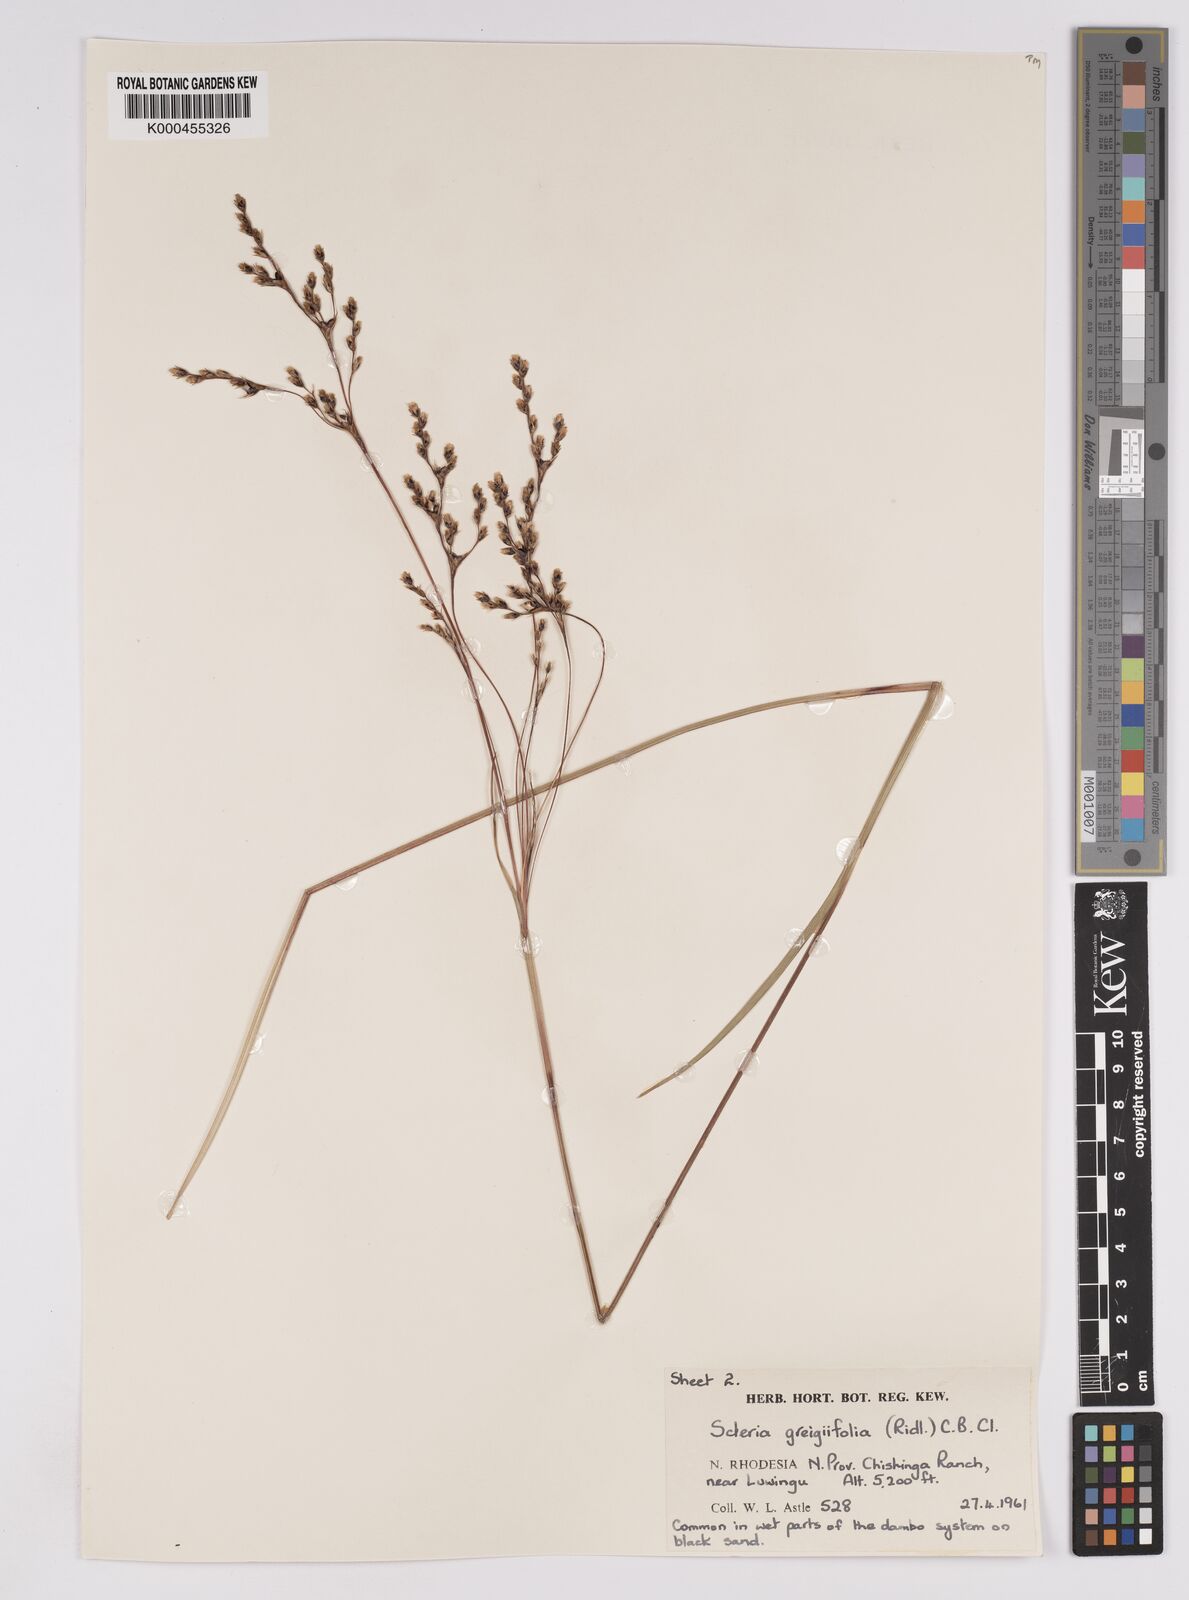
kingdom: Plantae
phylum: Tracheophyta
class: Liliopsida
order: Poales
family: Cyperaceae
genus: Scleria
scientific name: Scleria greigiifolia
